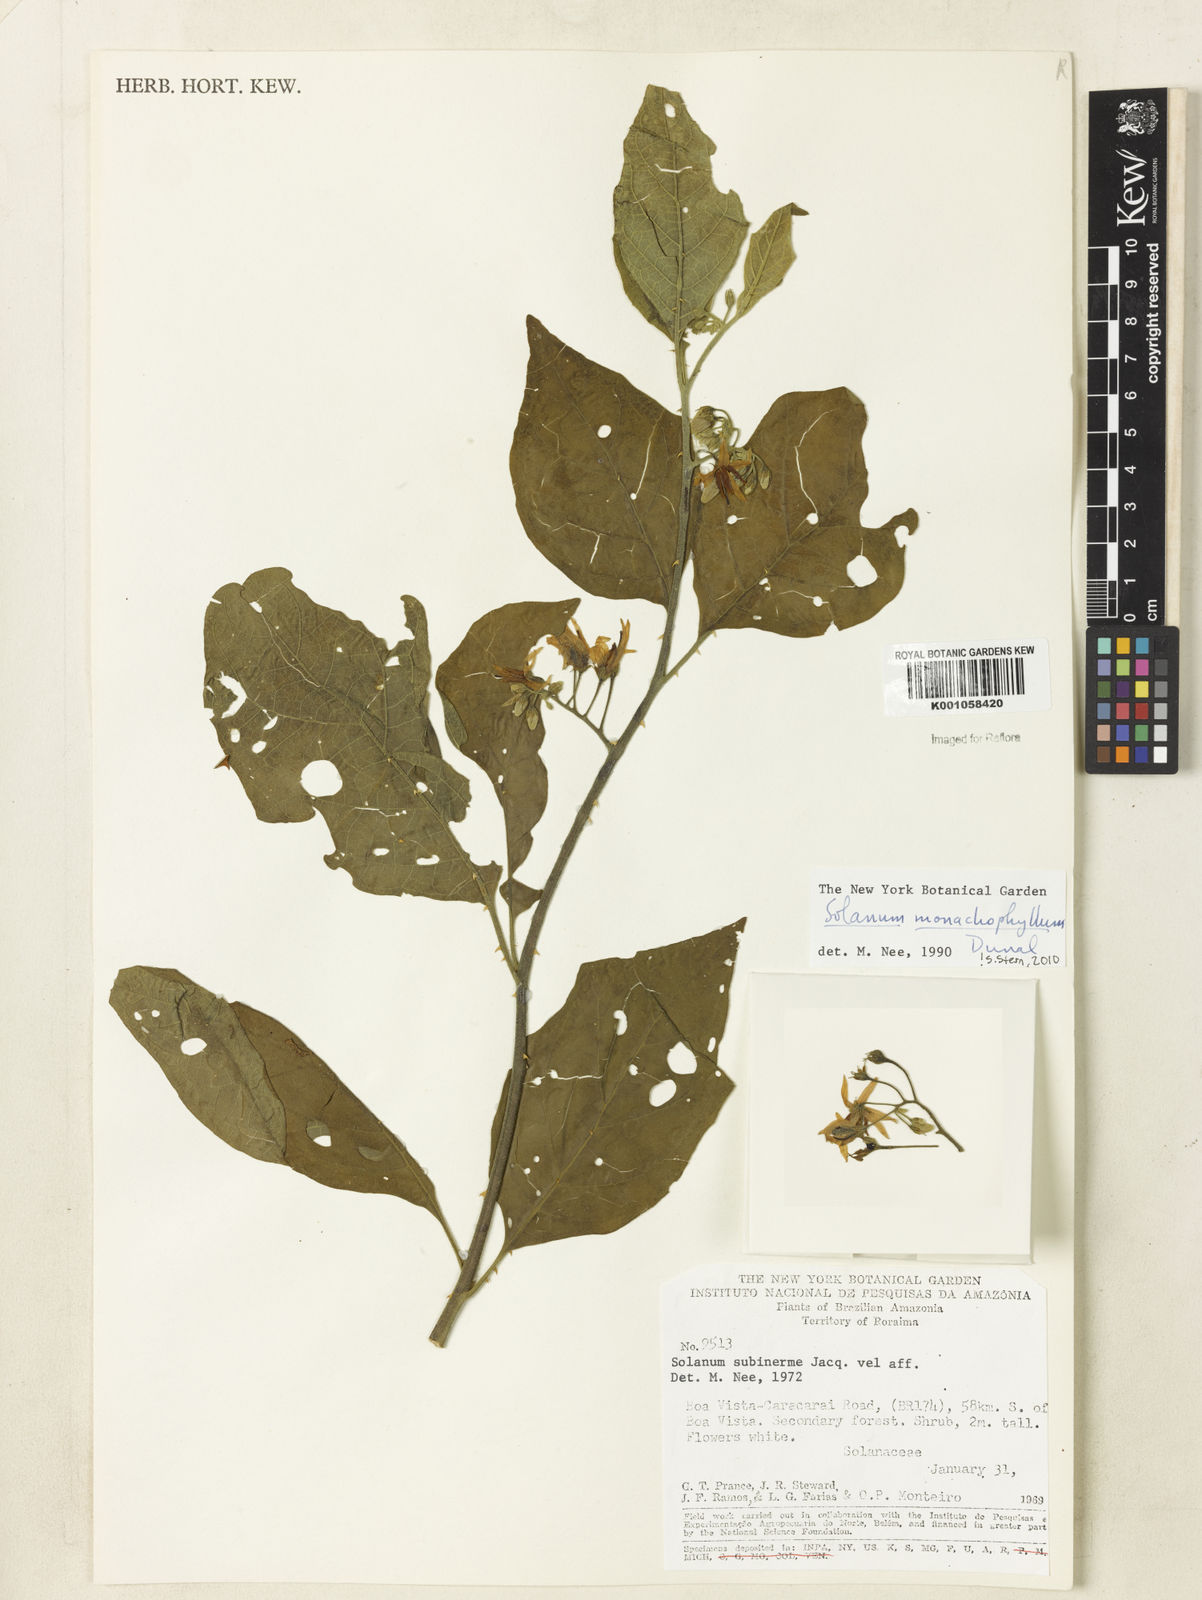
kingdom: Plantae
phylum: Tracheophyta
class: Magnoliopsida
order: Solanales
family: Solanaceae
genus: Solanum
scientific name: Solanum monachophyllum
